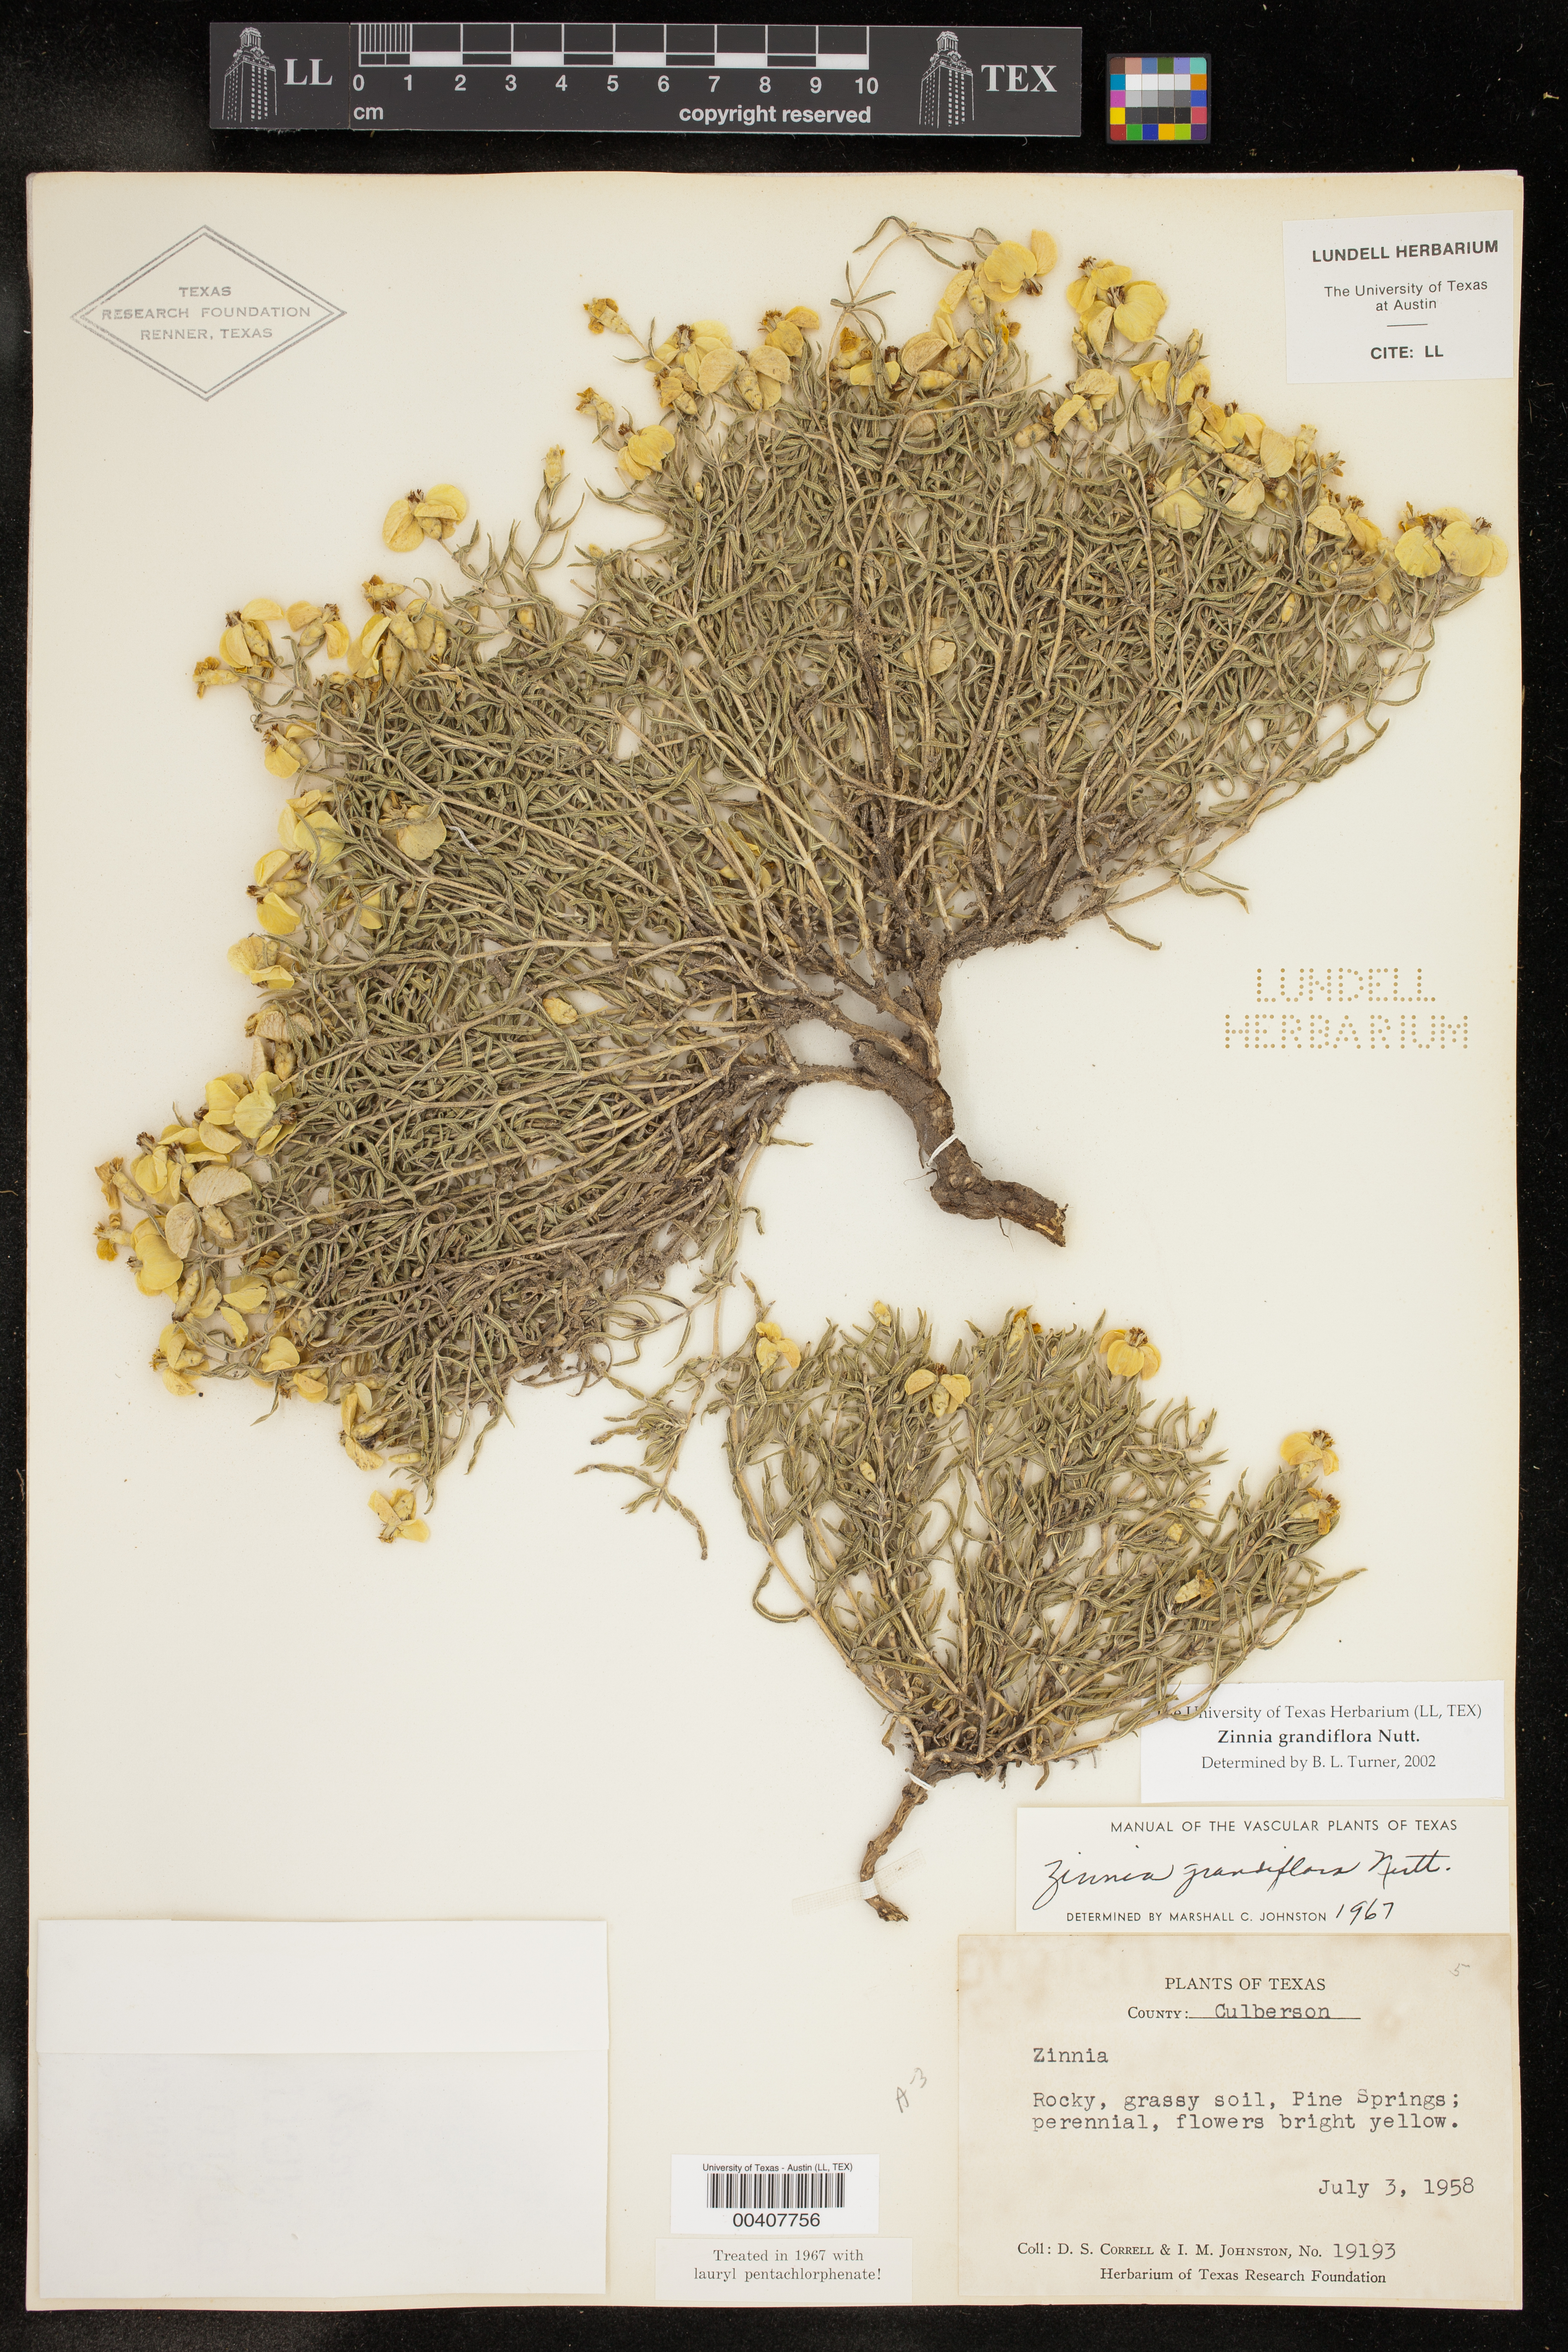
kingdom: Plantae
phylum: Tracheophyta
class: Magnoliopsida
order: Asterales
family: Asteraceae
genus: Zinnia
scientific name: Zinnia grandiflora
